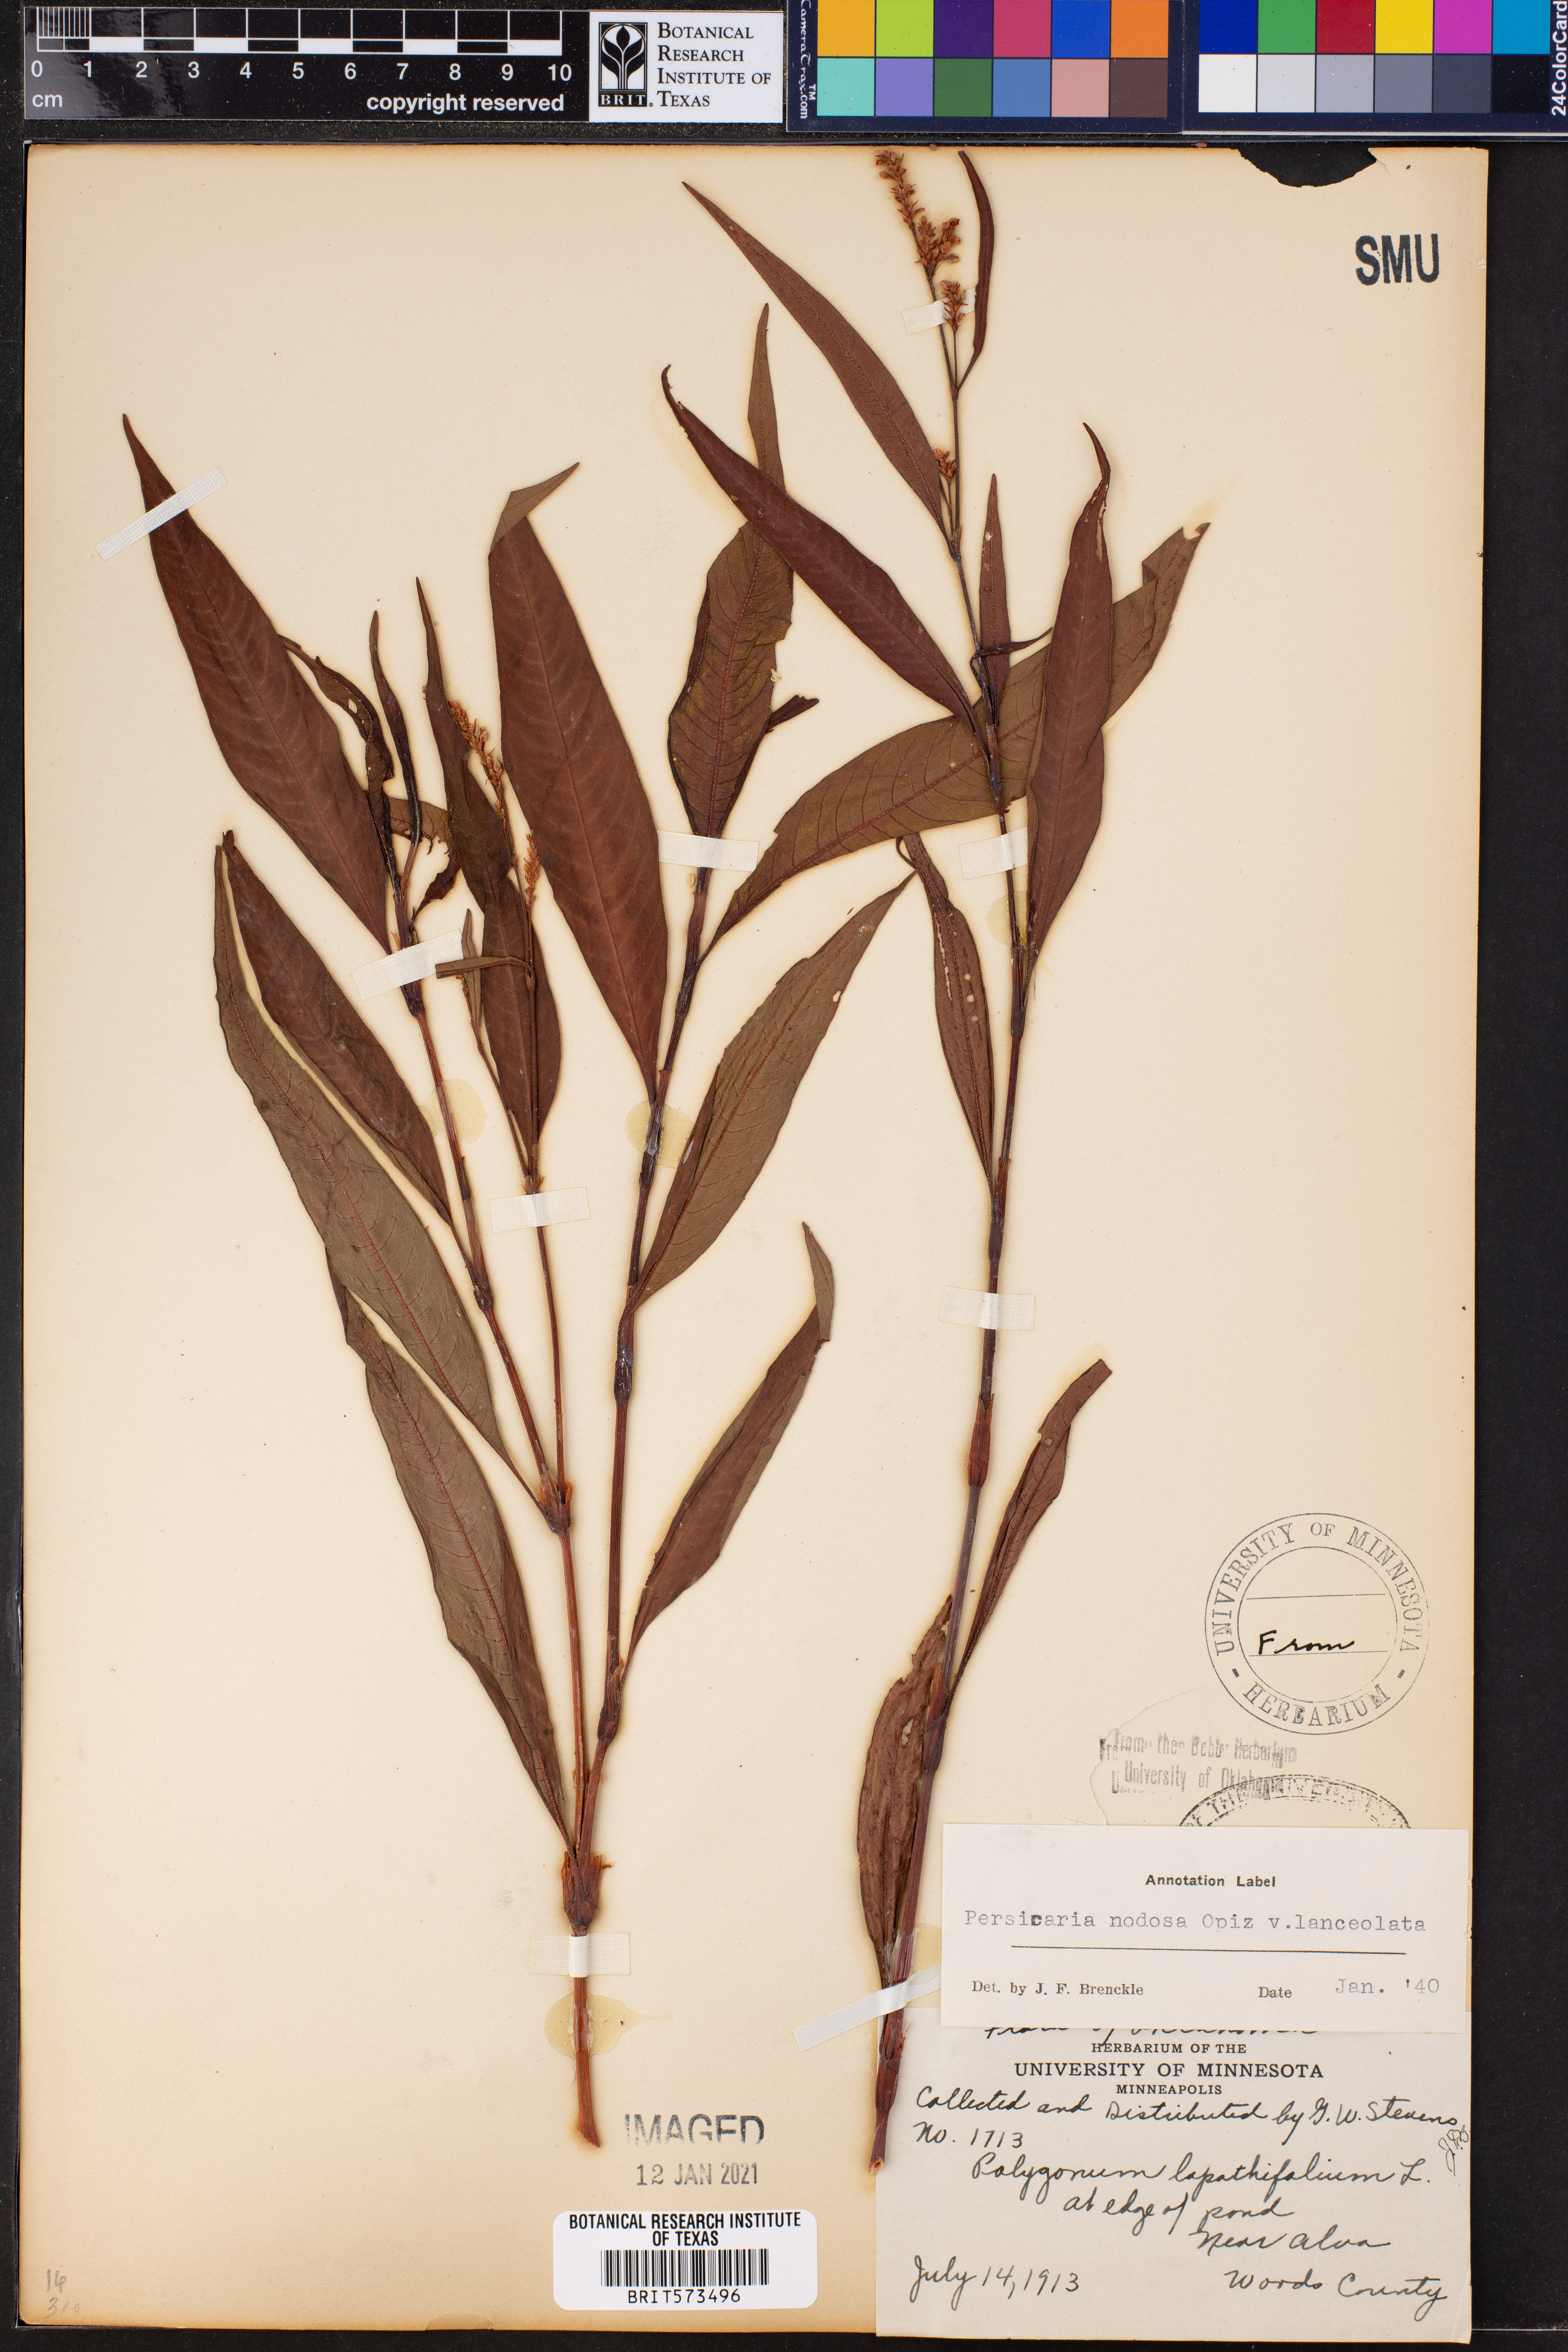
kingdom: Plantae
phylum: Tracheophyta
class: Magnoliopsida
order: Caryophyllales
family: Polygonaceae
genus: Persicaria
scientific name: Persicaria lapathifolia
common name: Curlytop knotweed
